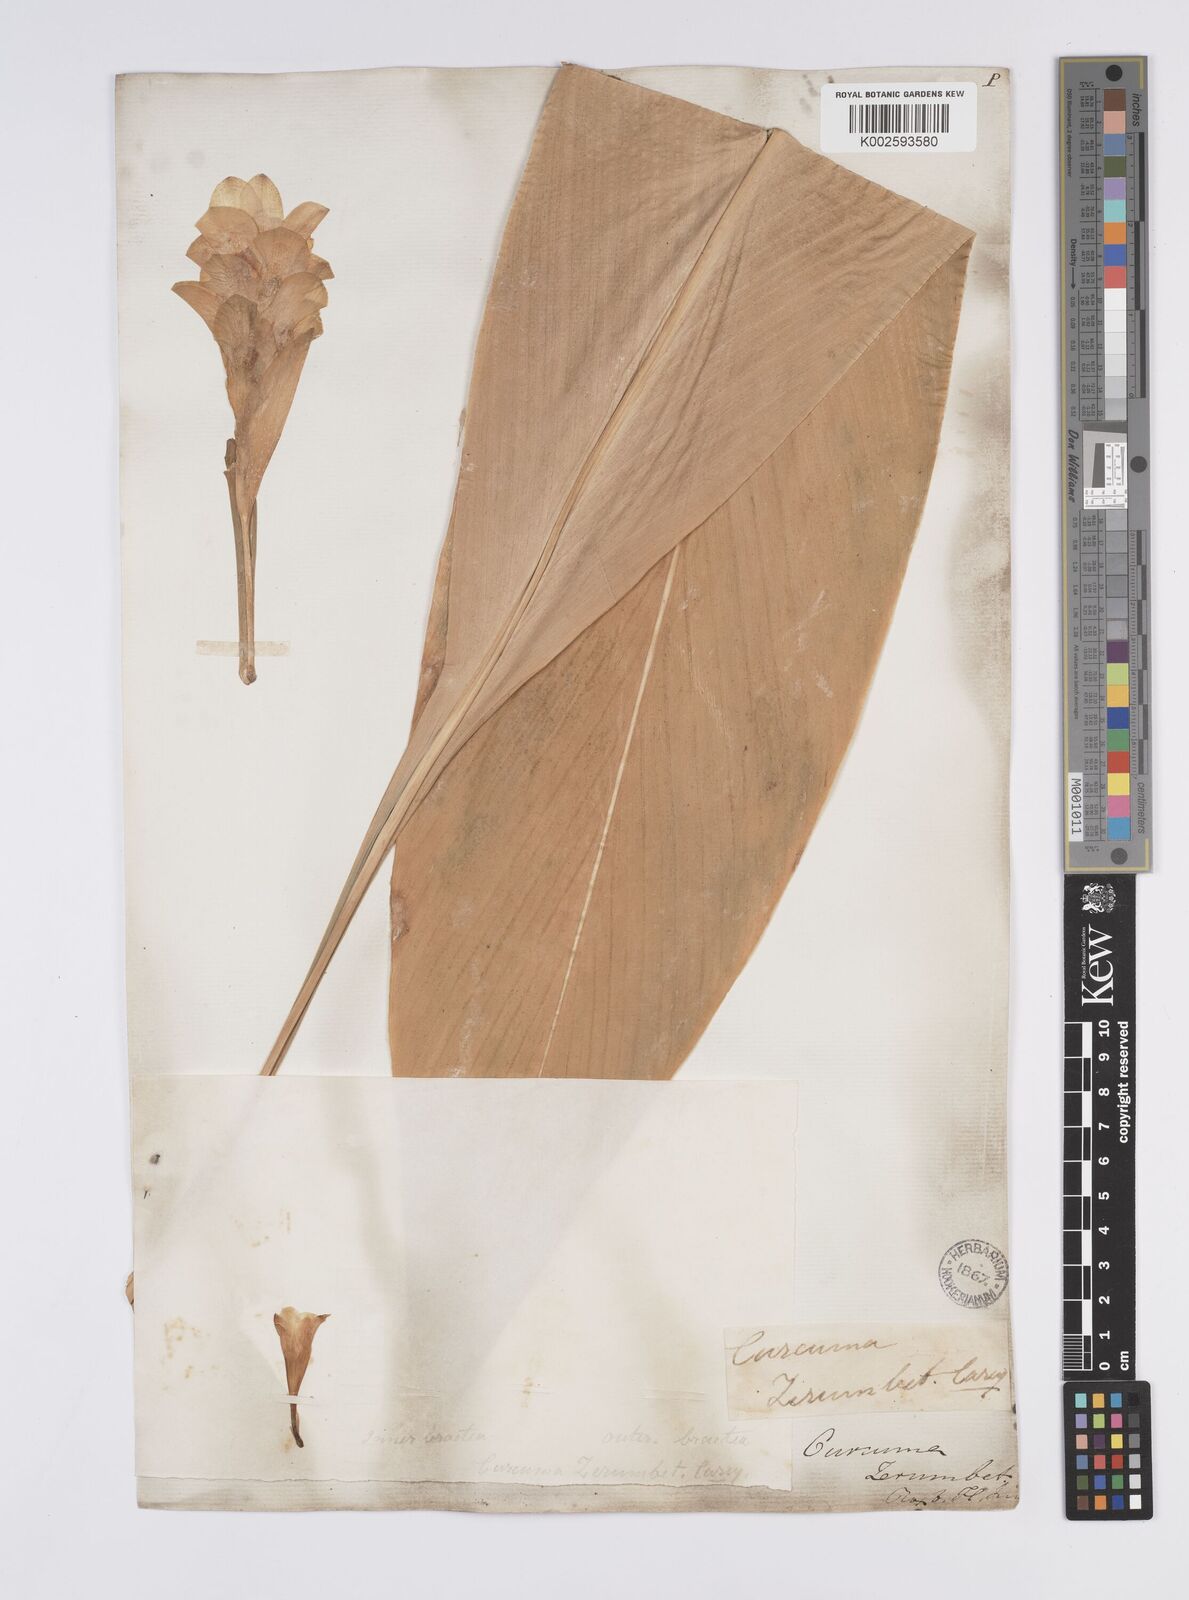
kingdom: Plantae
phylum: Tracheophyta
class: Liliopsida
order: Zingiberales
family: Zingiberaceae
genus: Curcuma
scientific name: Curcuma aromatica
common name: Wild turmeric
